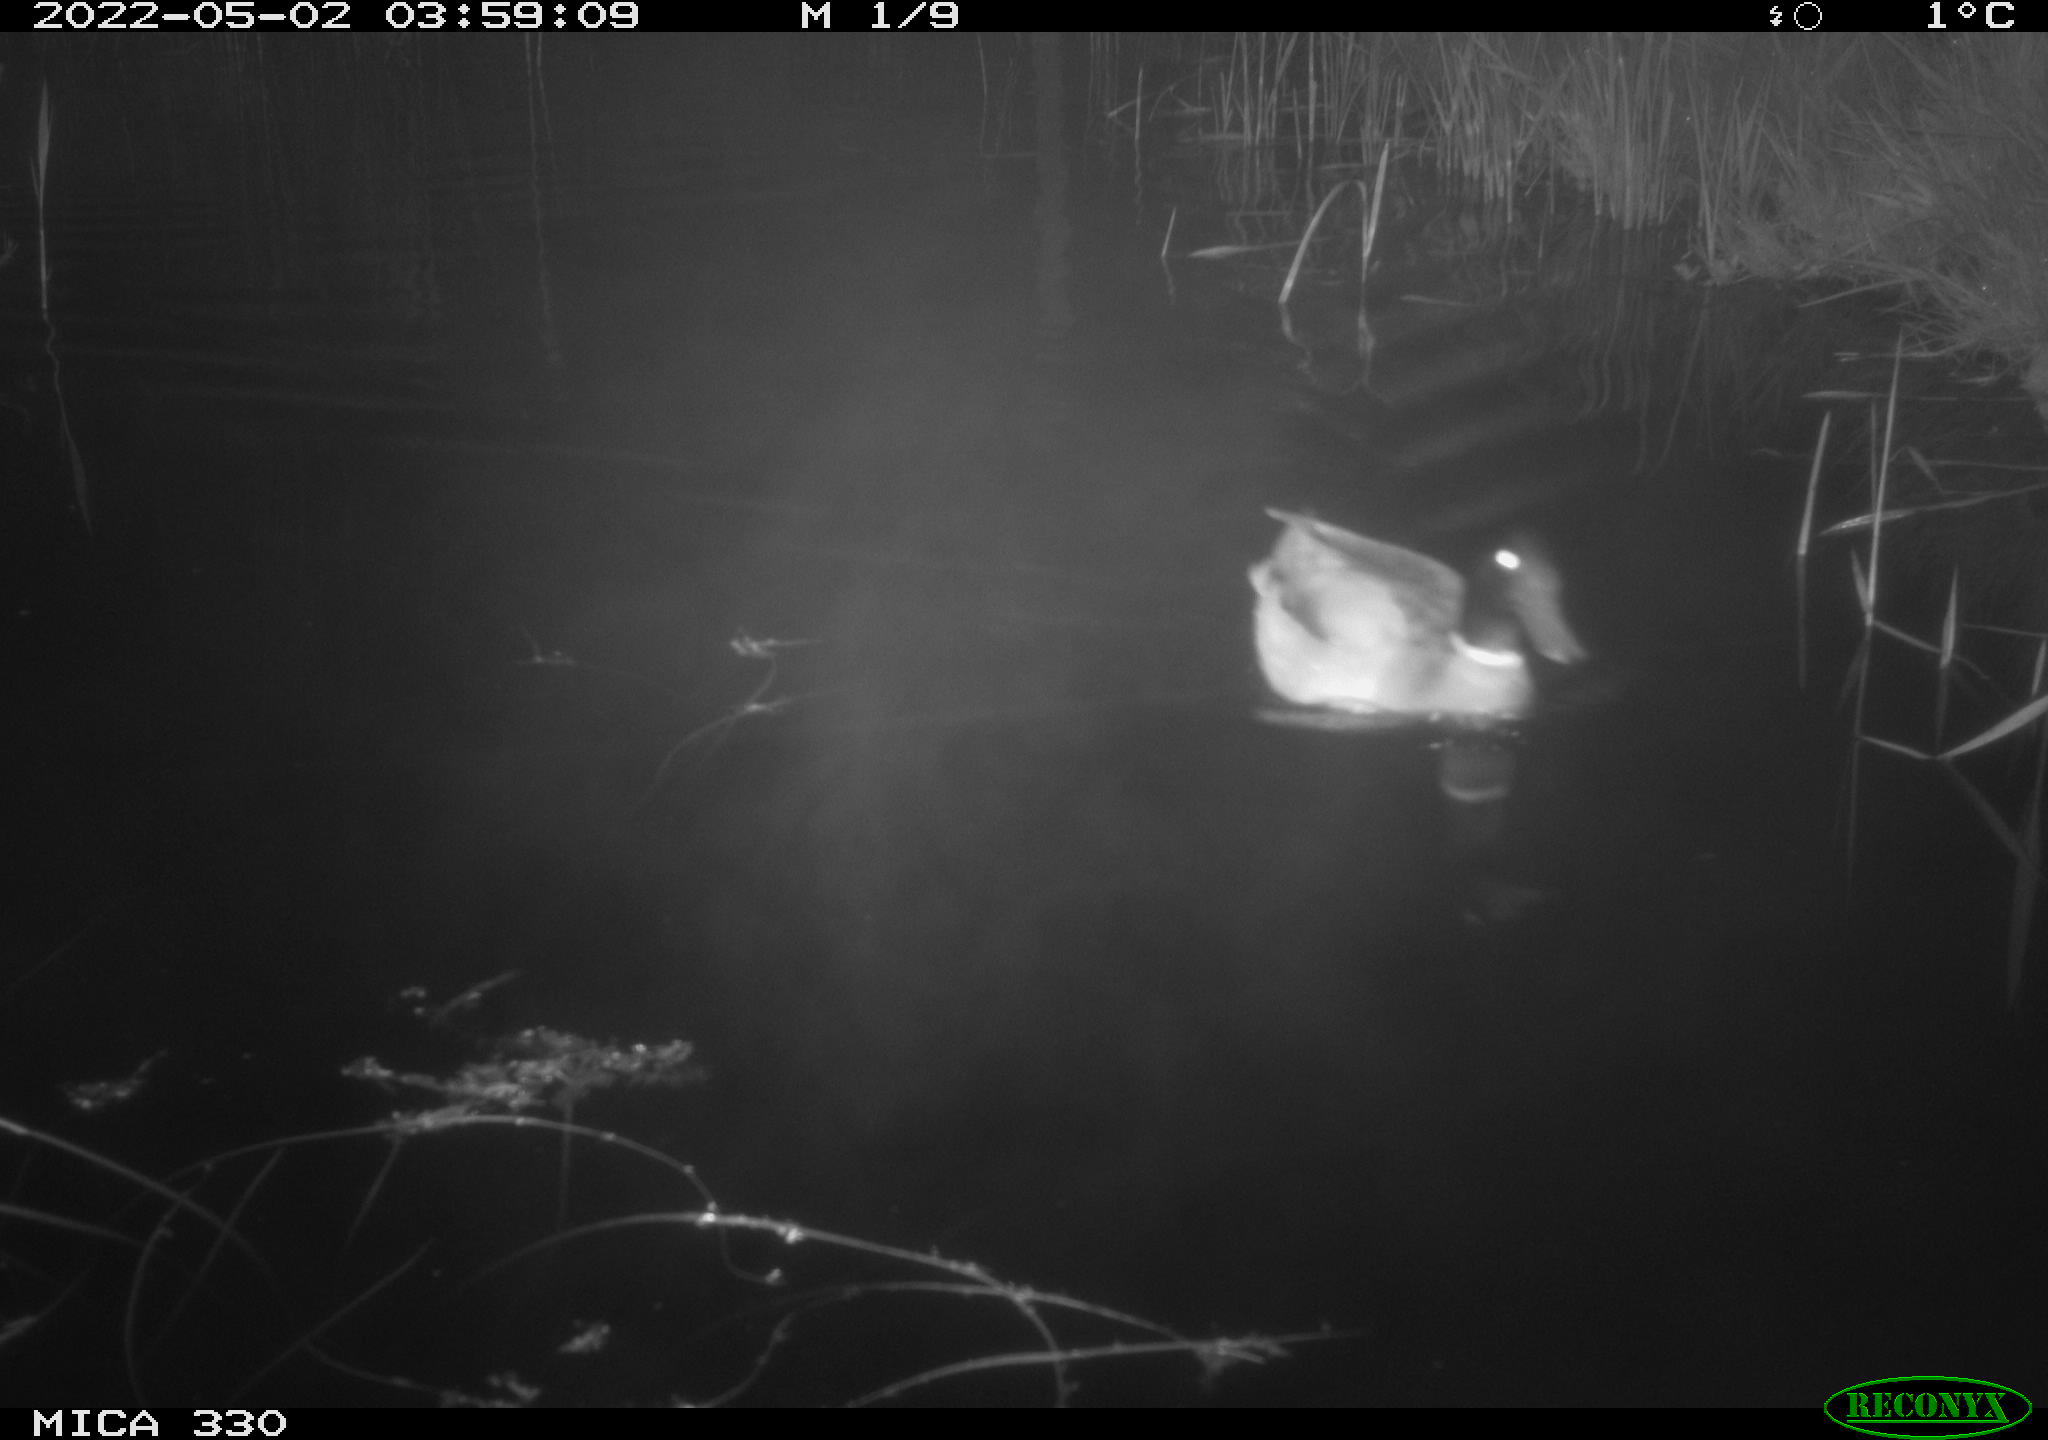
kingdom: Animalia
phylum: Chordata
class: Aves
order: Anseriformes
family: Anatidae
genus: Anas
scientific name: Anas platyrhynchos
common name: Mallard
